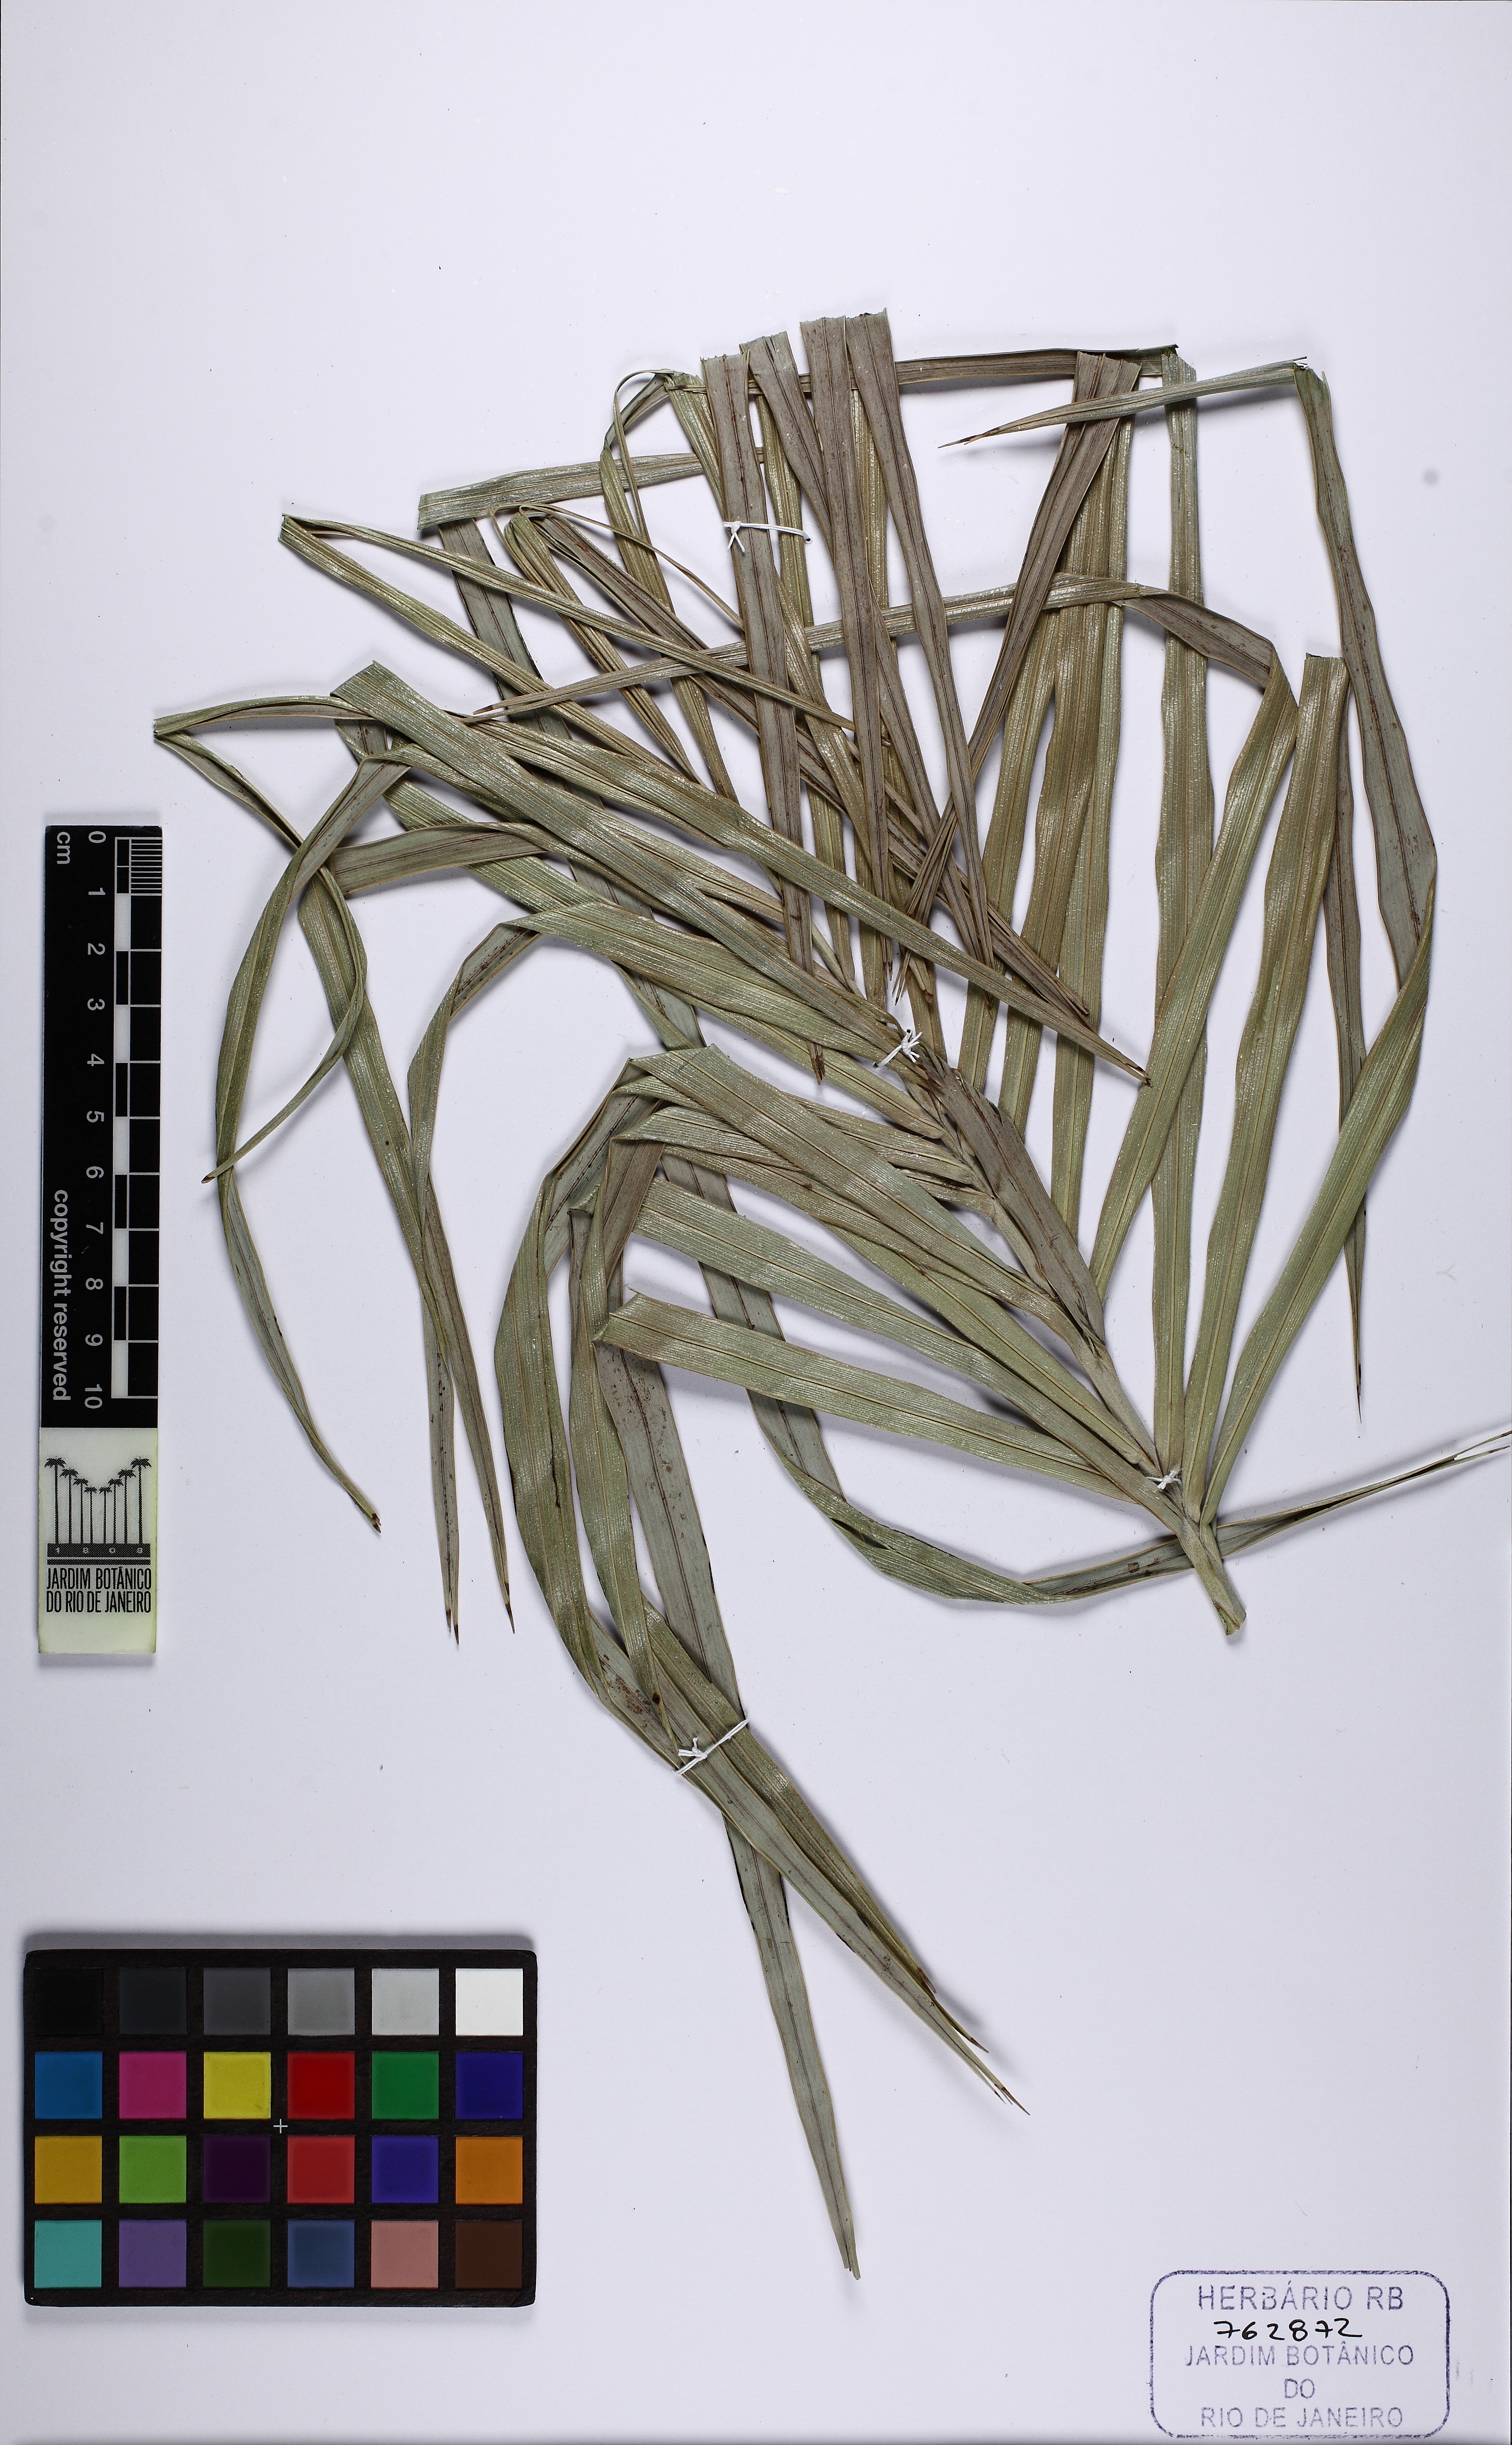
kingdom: Plantae
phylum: Tracheophyta
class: Liliopsida
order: Arecales
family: Arecaceae
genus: Allagoptera
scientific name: Allagoptera arenaria
